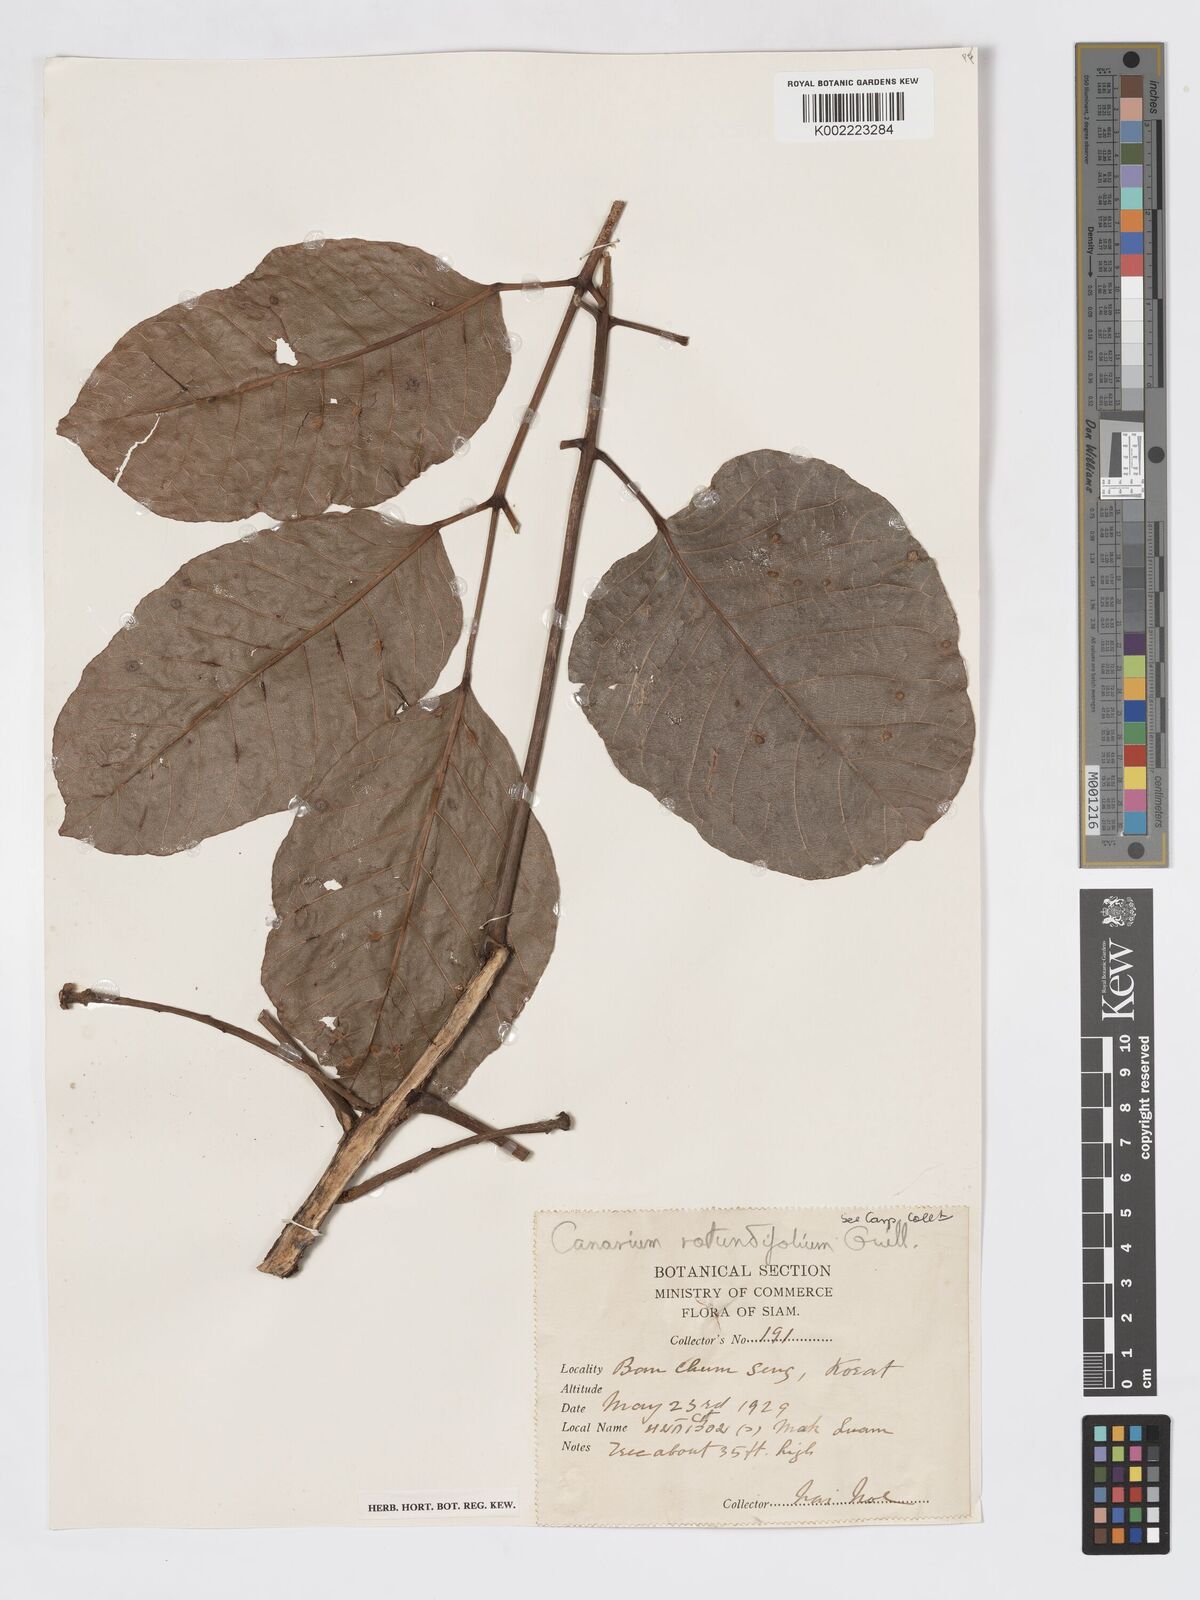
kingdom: Plantae
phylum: Tracheophyta
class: Magnoliopsida
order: Sapindales
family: Burseraceae
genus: Canarium
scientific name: Canarium subulatum
